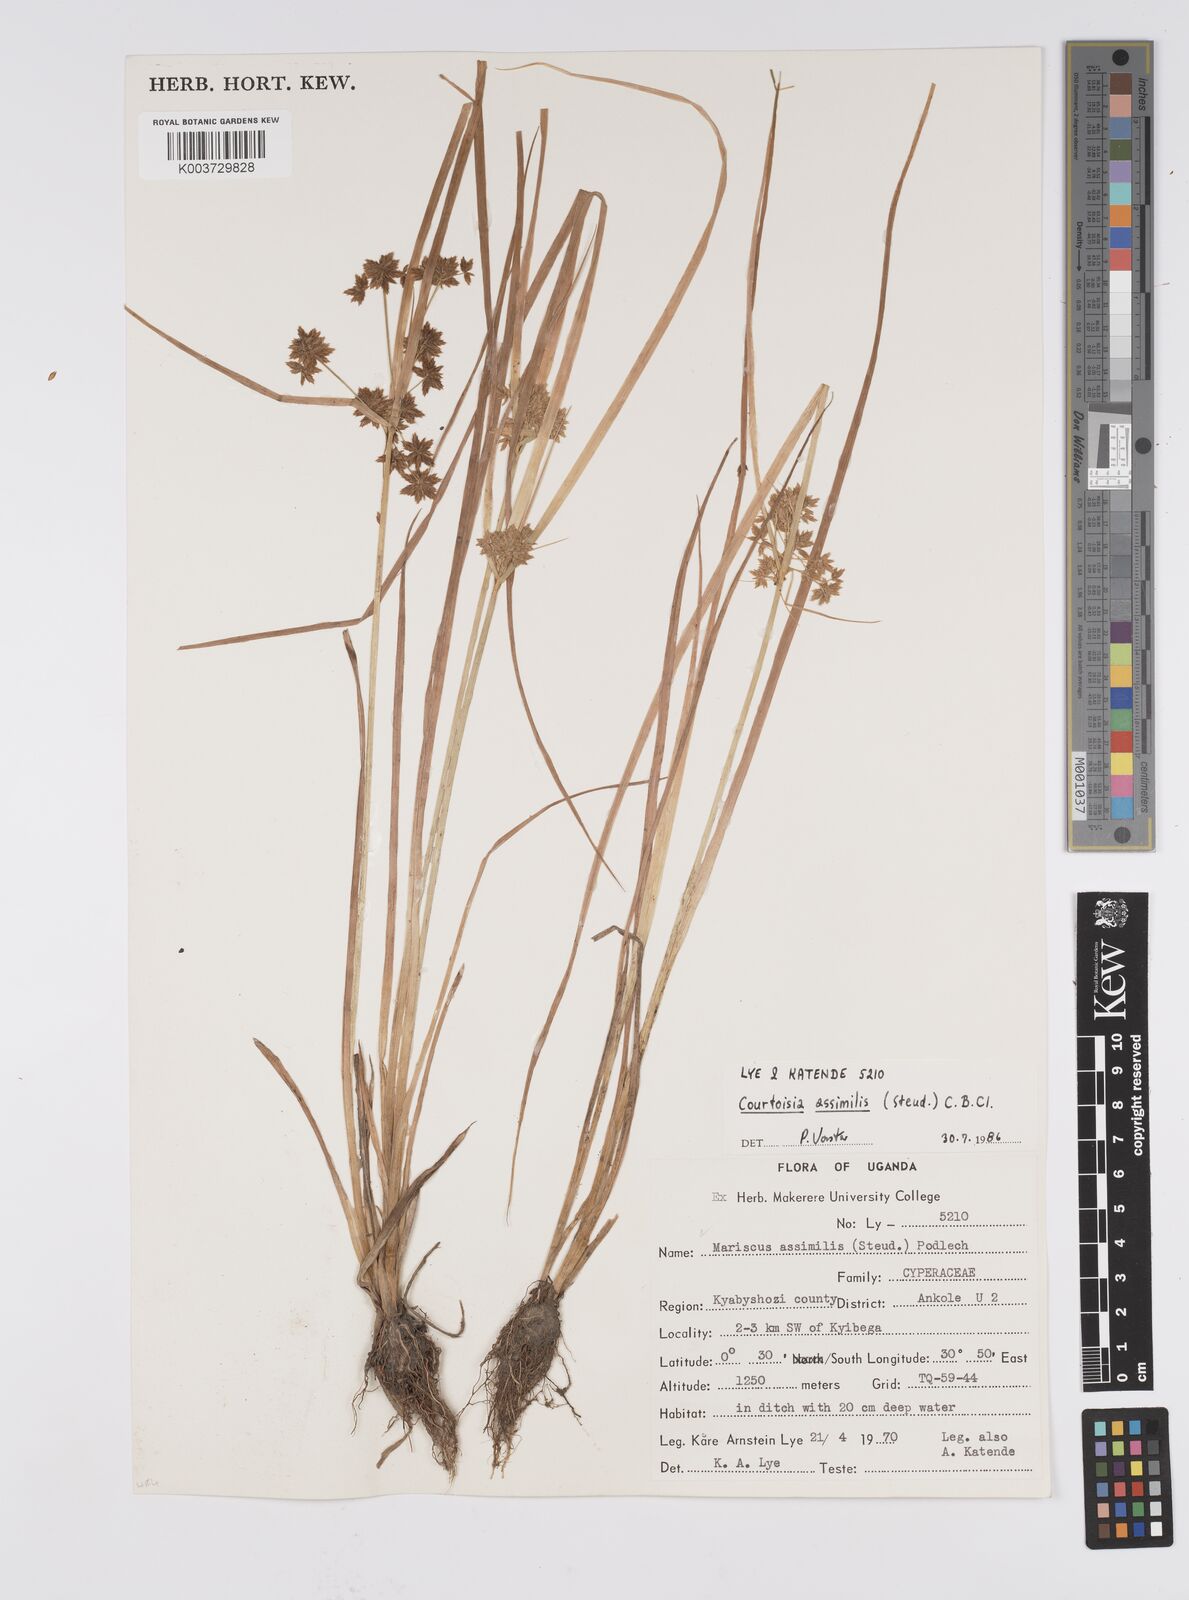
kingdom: Plantae
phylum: Tracheophyta
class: Liliopsida
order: Poales
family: Cyperaceae
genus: Cyperus
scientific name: Cyperus assimilis
